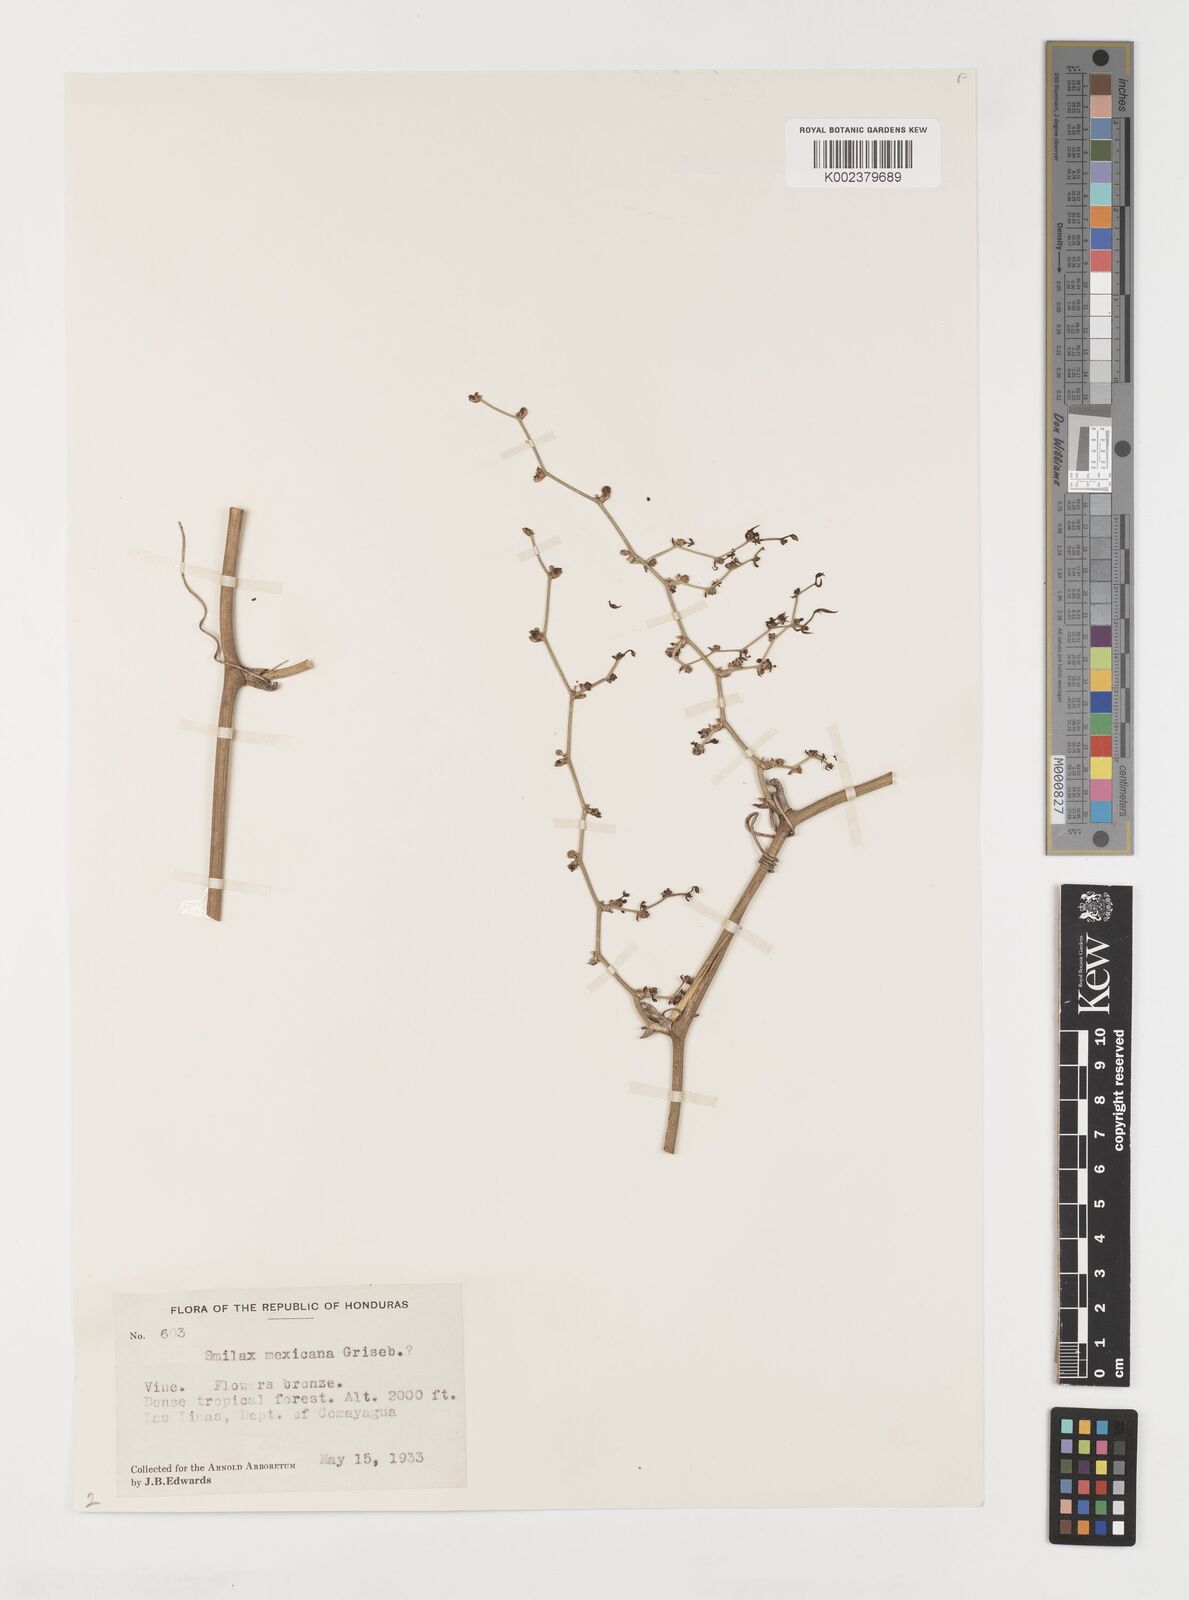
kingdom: Plantae
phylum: Tracheophyta
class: Liliopsida
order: Liliales
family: Smilacaceae
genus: Smilax
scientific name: Smilax spinosa
